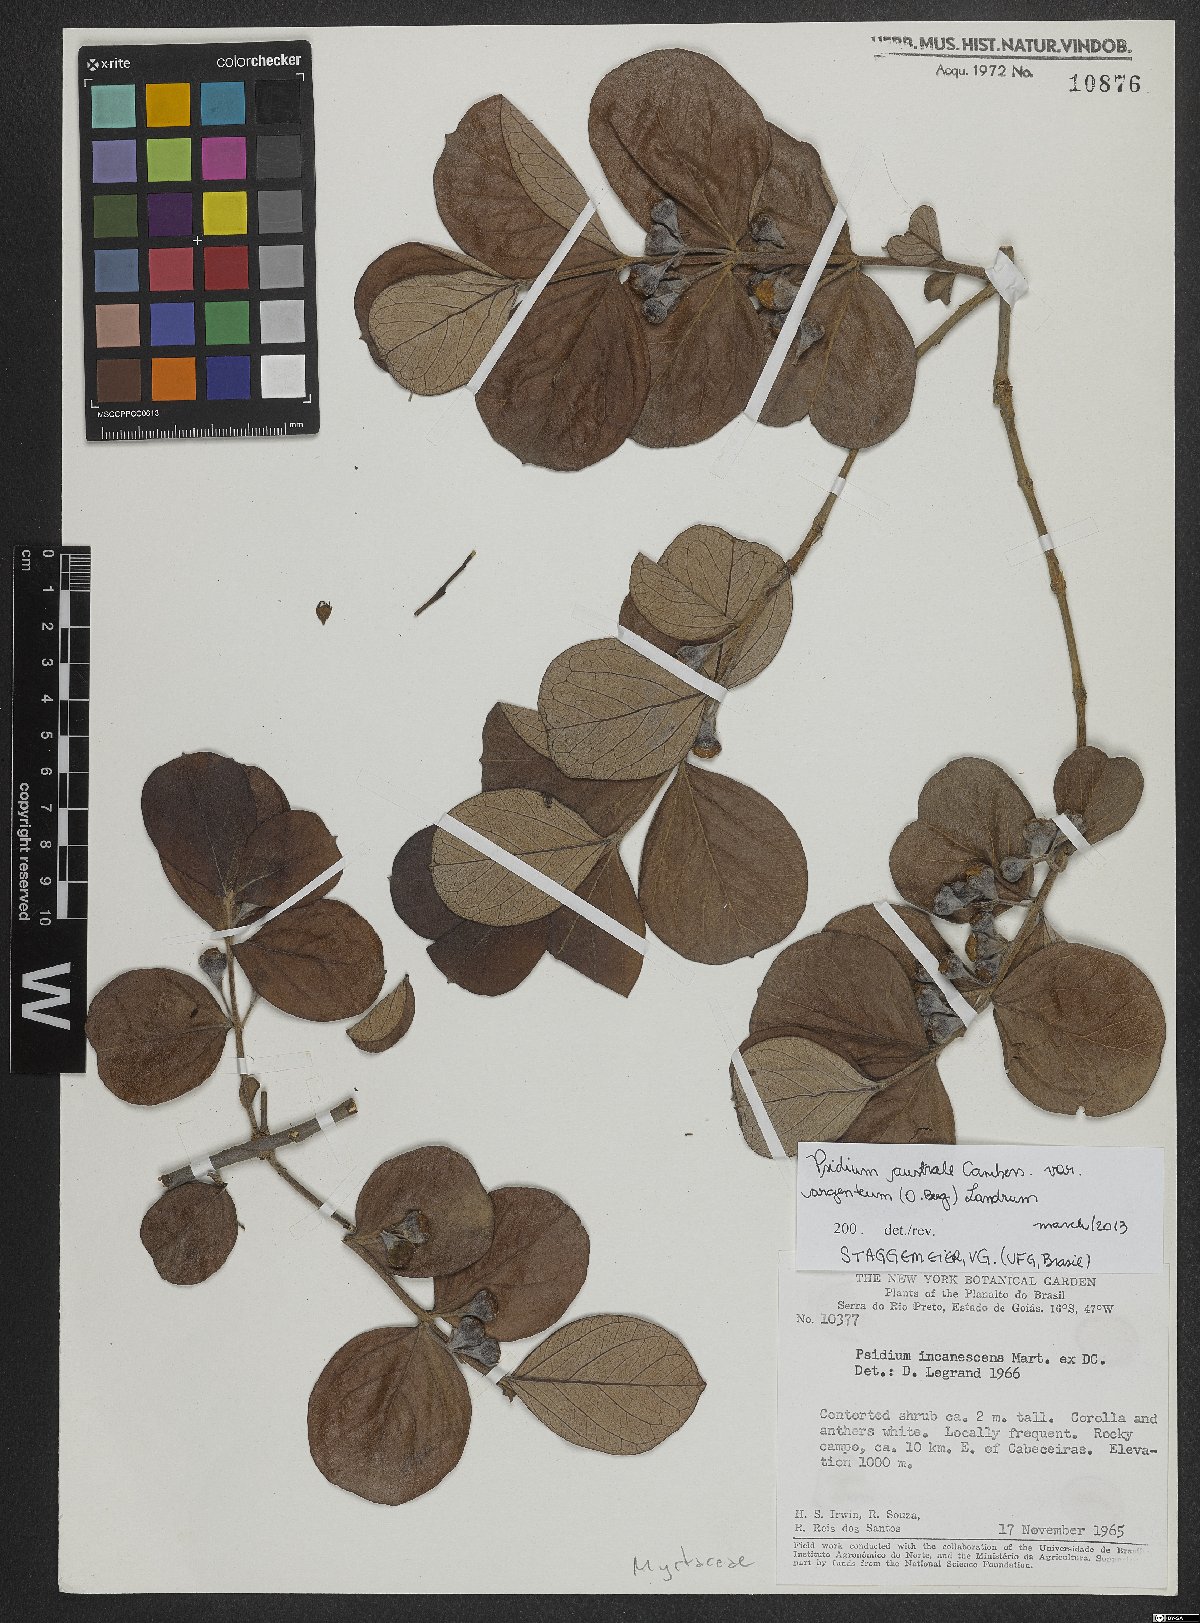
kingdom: Plantae
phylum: Tracheophyta
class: Magnoliopsida
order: Myrtales
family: Myrtaceae
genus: Psidium
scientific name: Psidium australe
